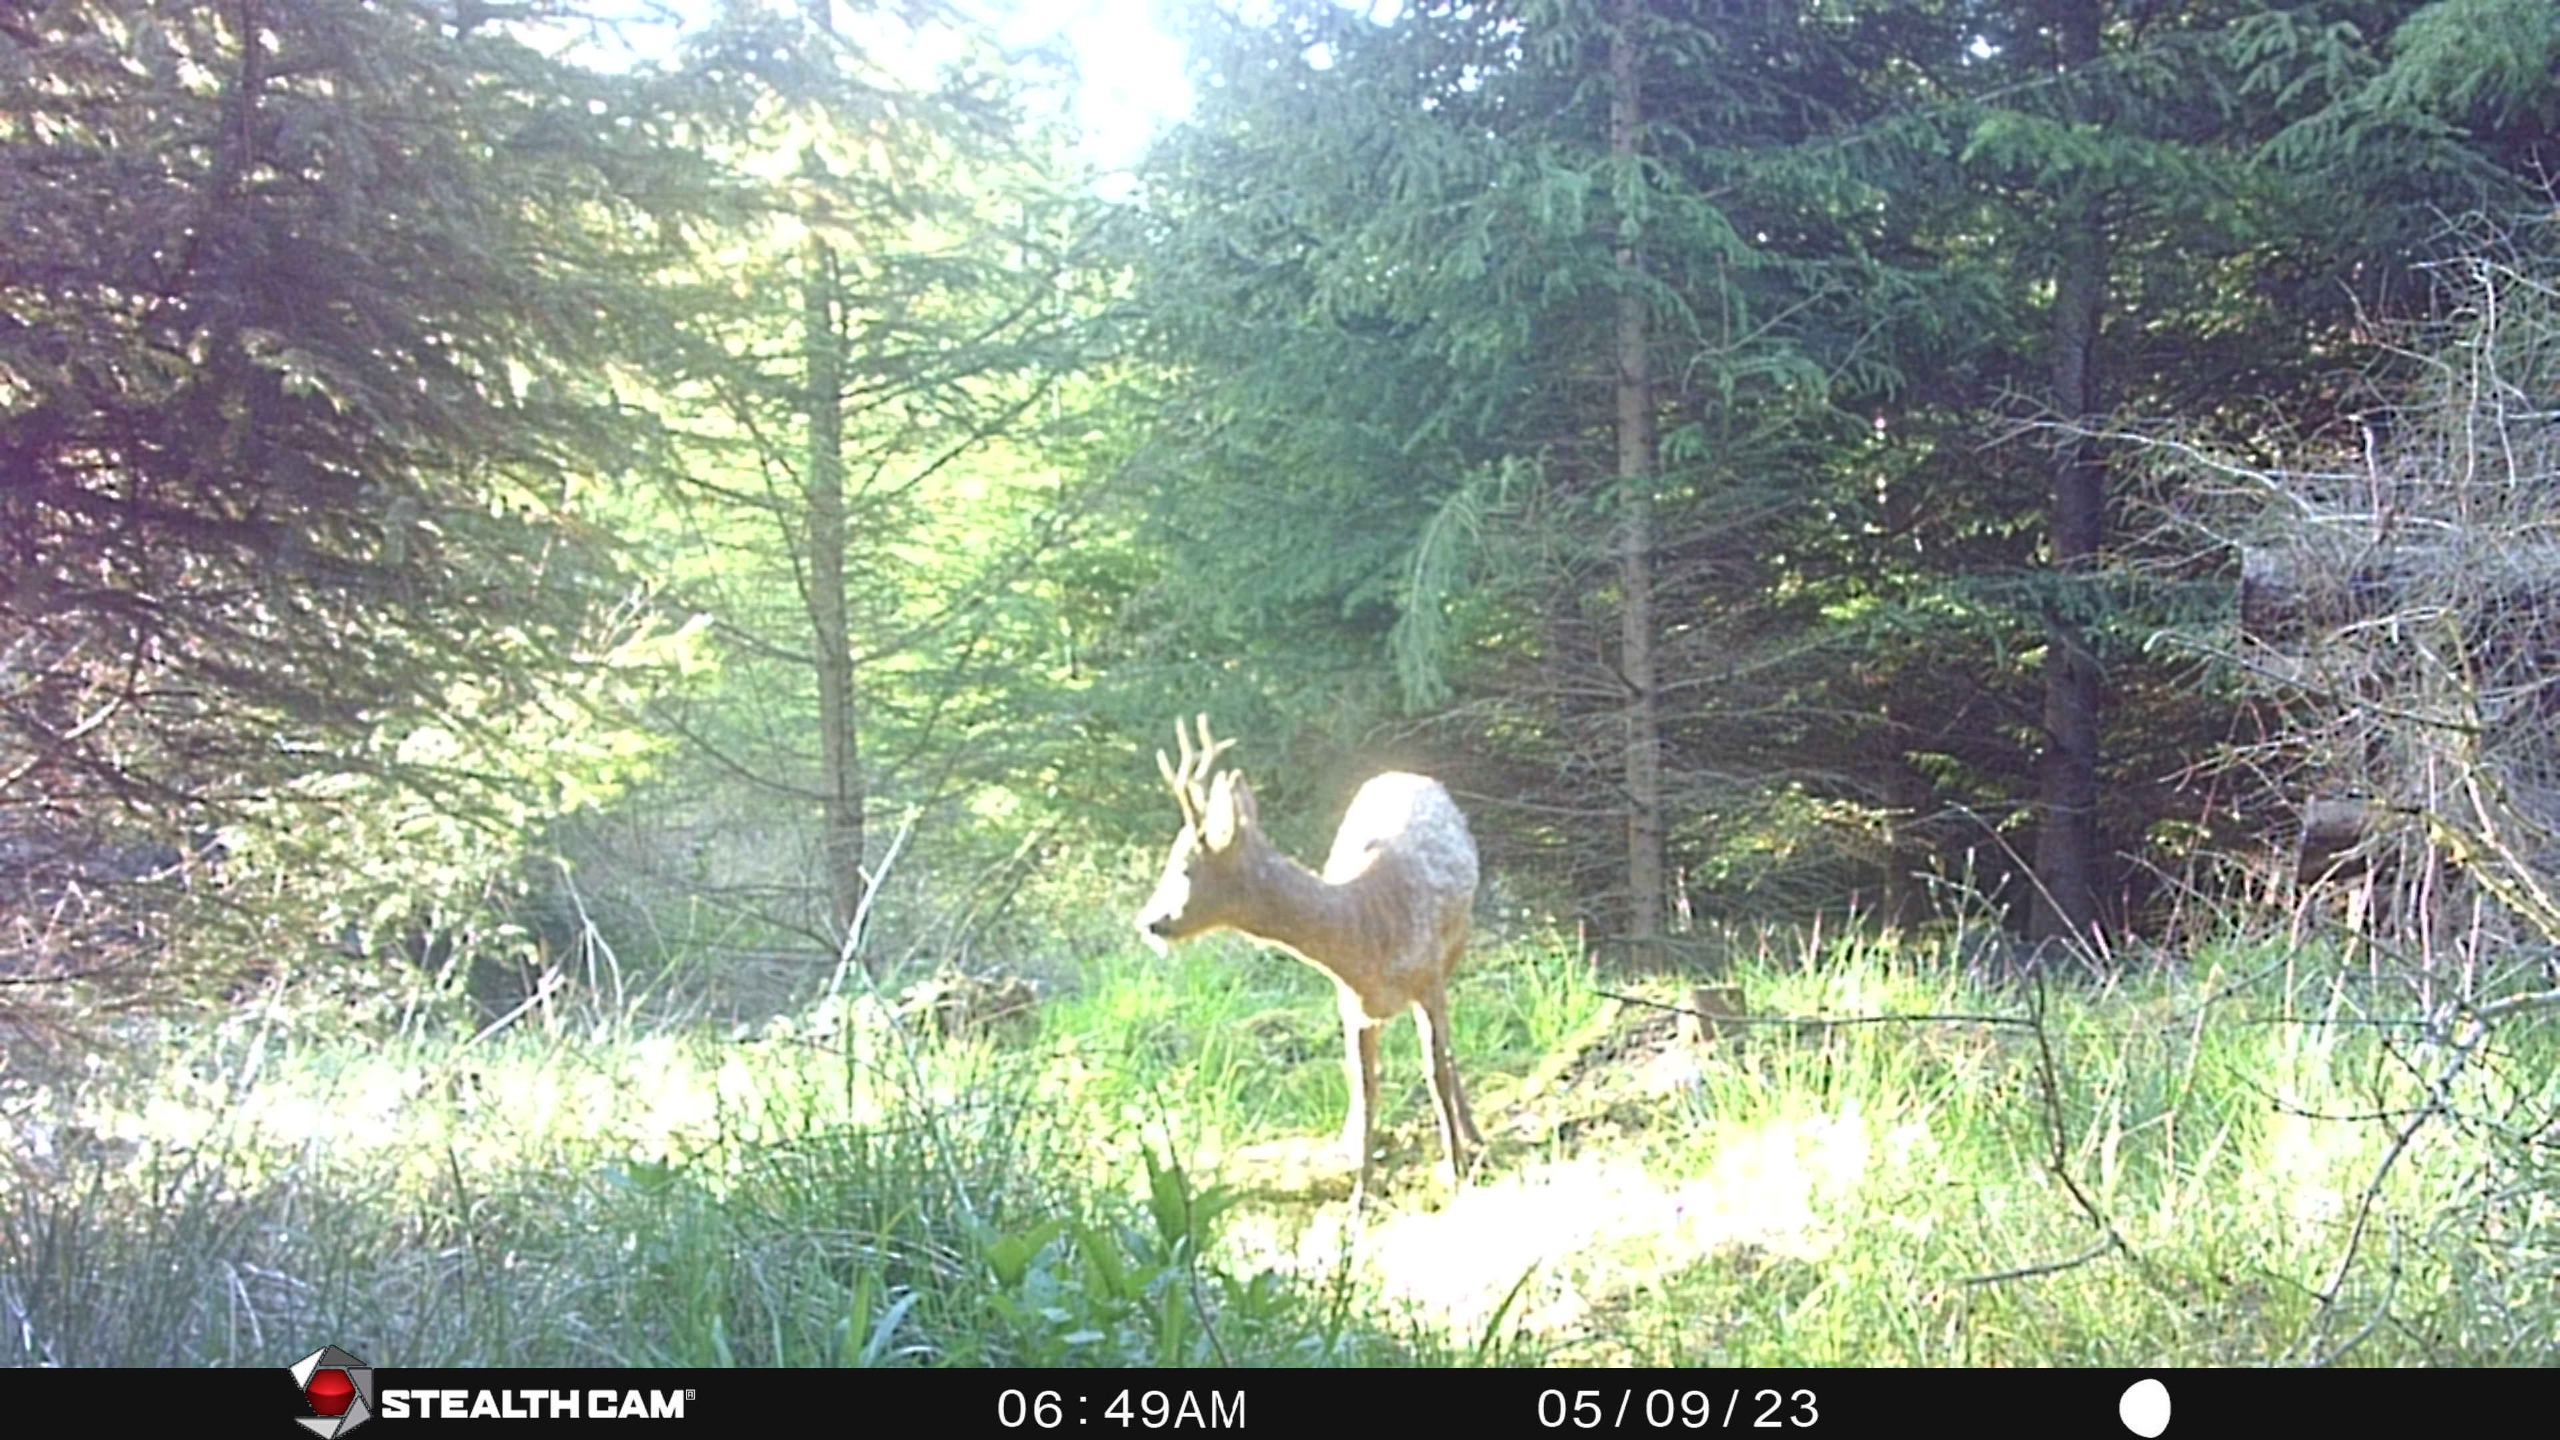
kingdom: Animalia
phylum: Chordata
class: Mammalia
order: Artiodactyla
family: Cervidae
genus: Capreolus
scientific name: Capreolus capreolus
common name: Rådyr
